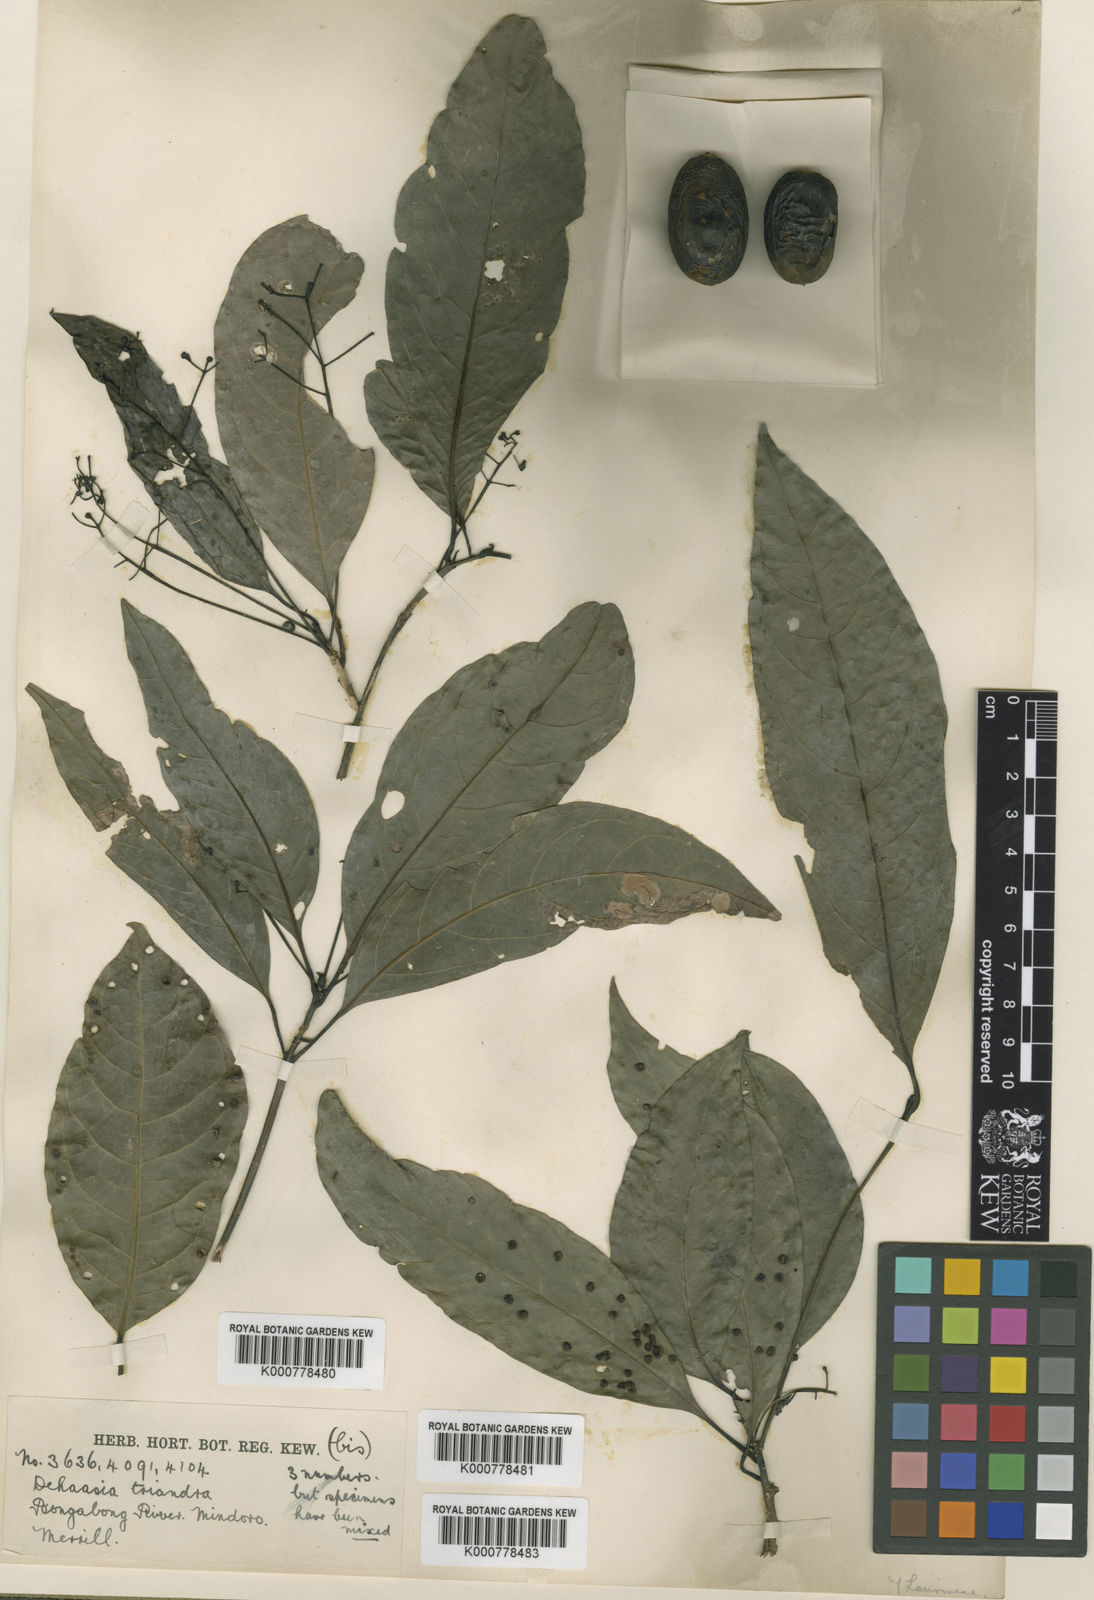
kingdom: Plantae
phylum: Tracheophyta
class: Magnoliopsida
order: Laurales
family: Lauraceae
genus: Dehaasia
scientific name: Dehaasia
